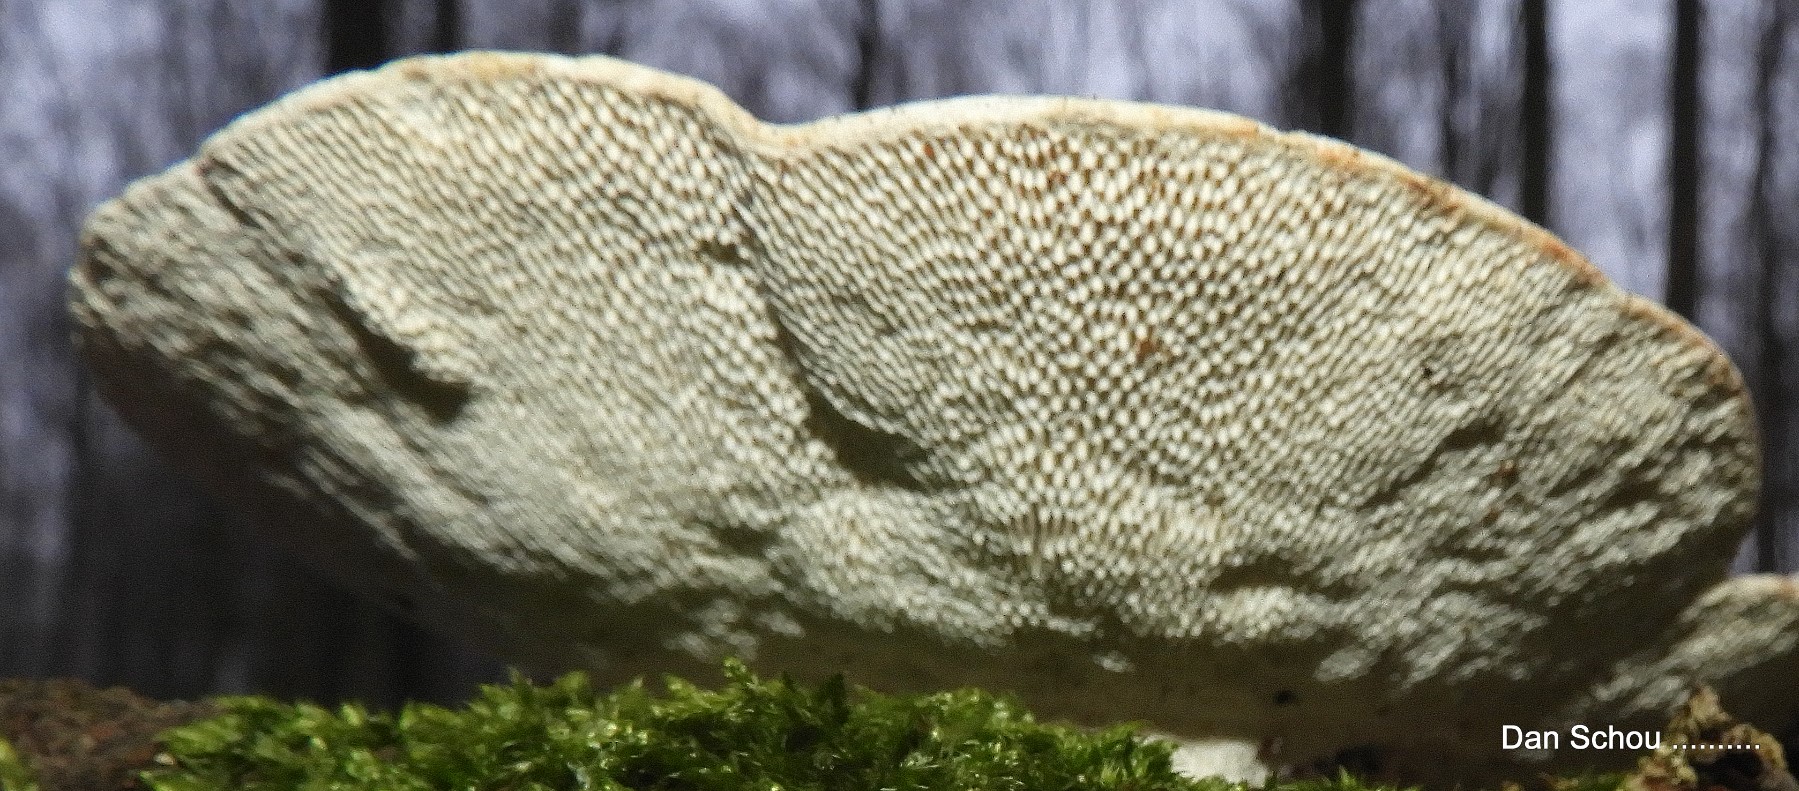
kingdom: Fungi
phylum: Basidiomycota
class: Agaricomycetes
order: Polyporales
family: Polyporaceae
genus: Trametes
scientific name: Trametes gibbosa
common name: puklet læderporesvamp
